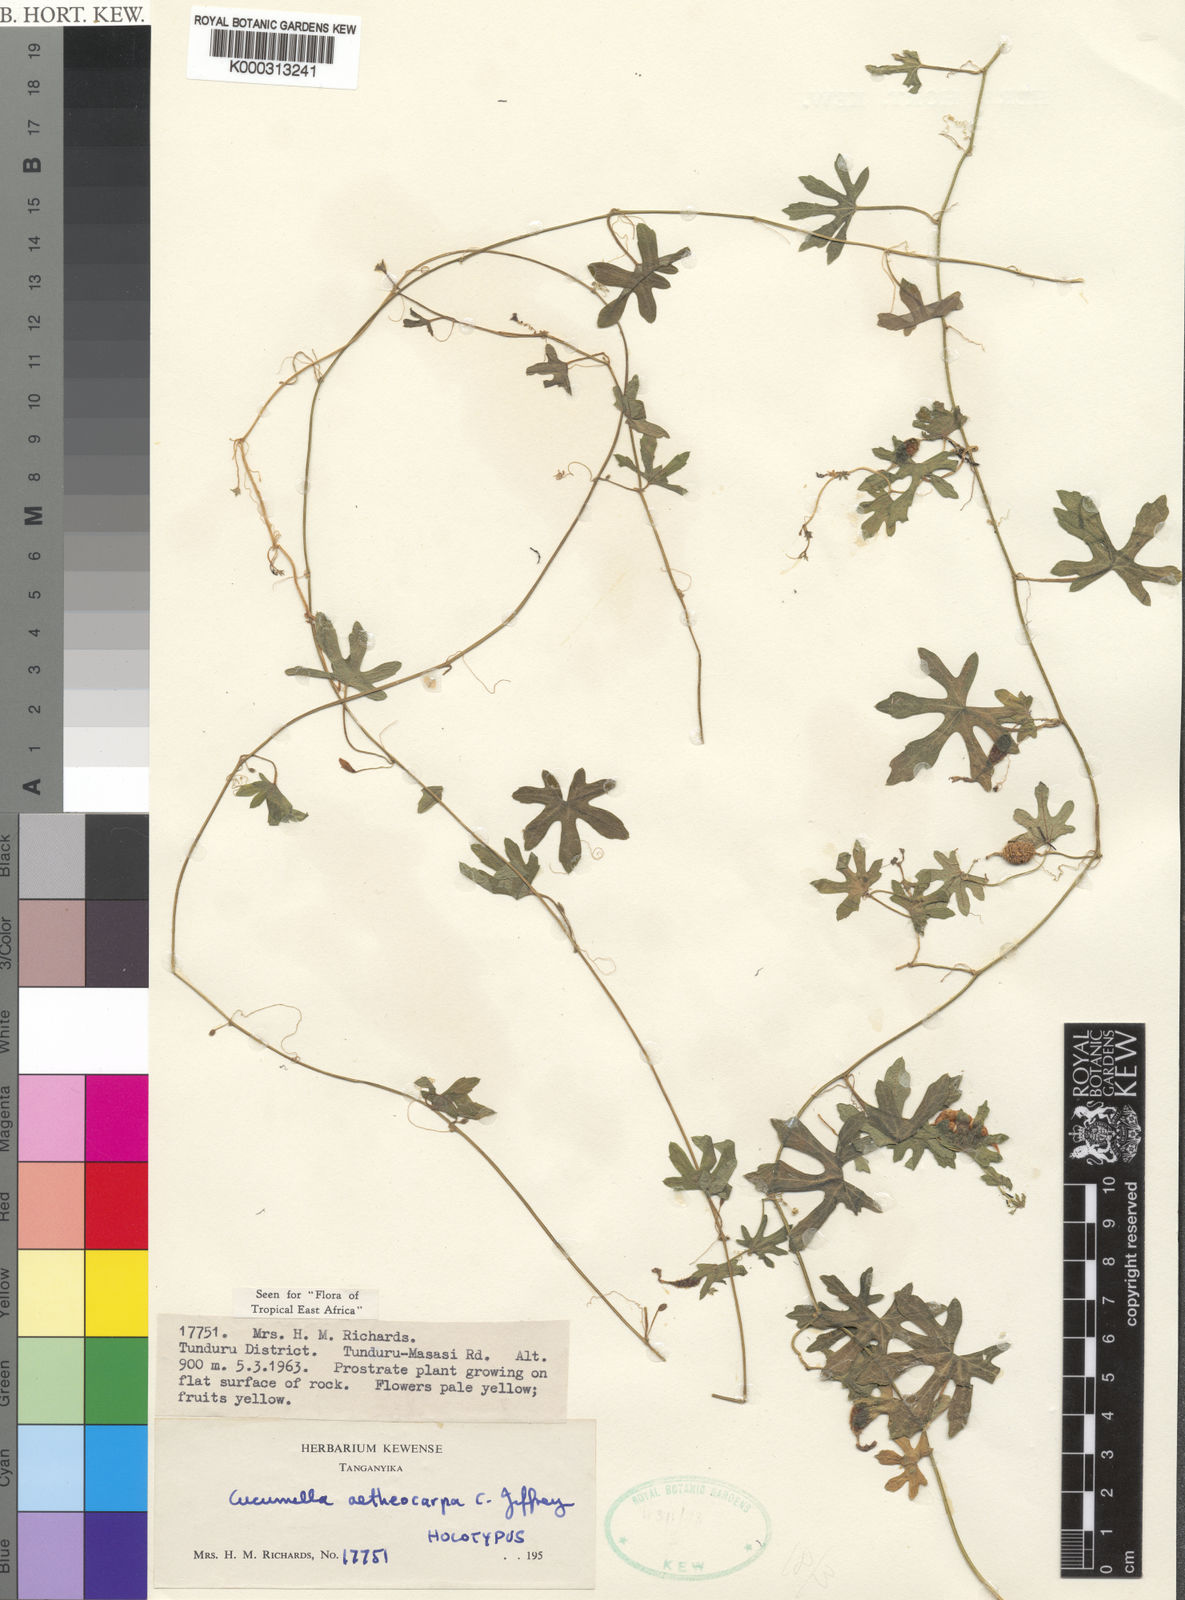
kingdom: Plantae
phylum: Tracheophyta
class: Magnoliopsida
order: Cucurbitales
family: Cucurbitaceae
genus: Cucumis
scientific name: Cucumis aetheocarpus
